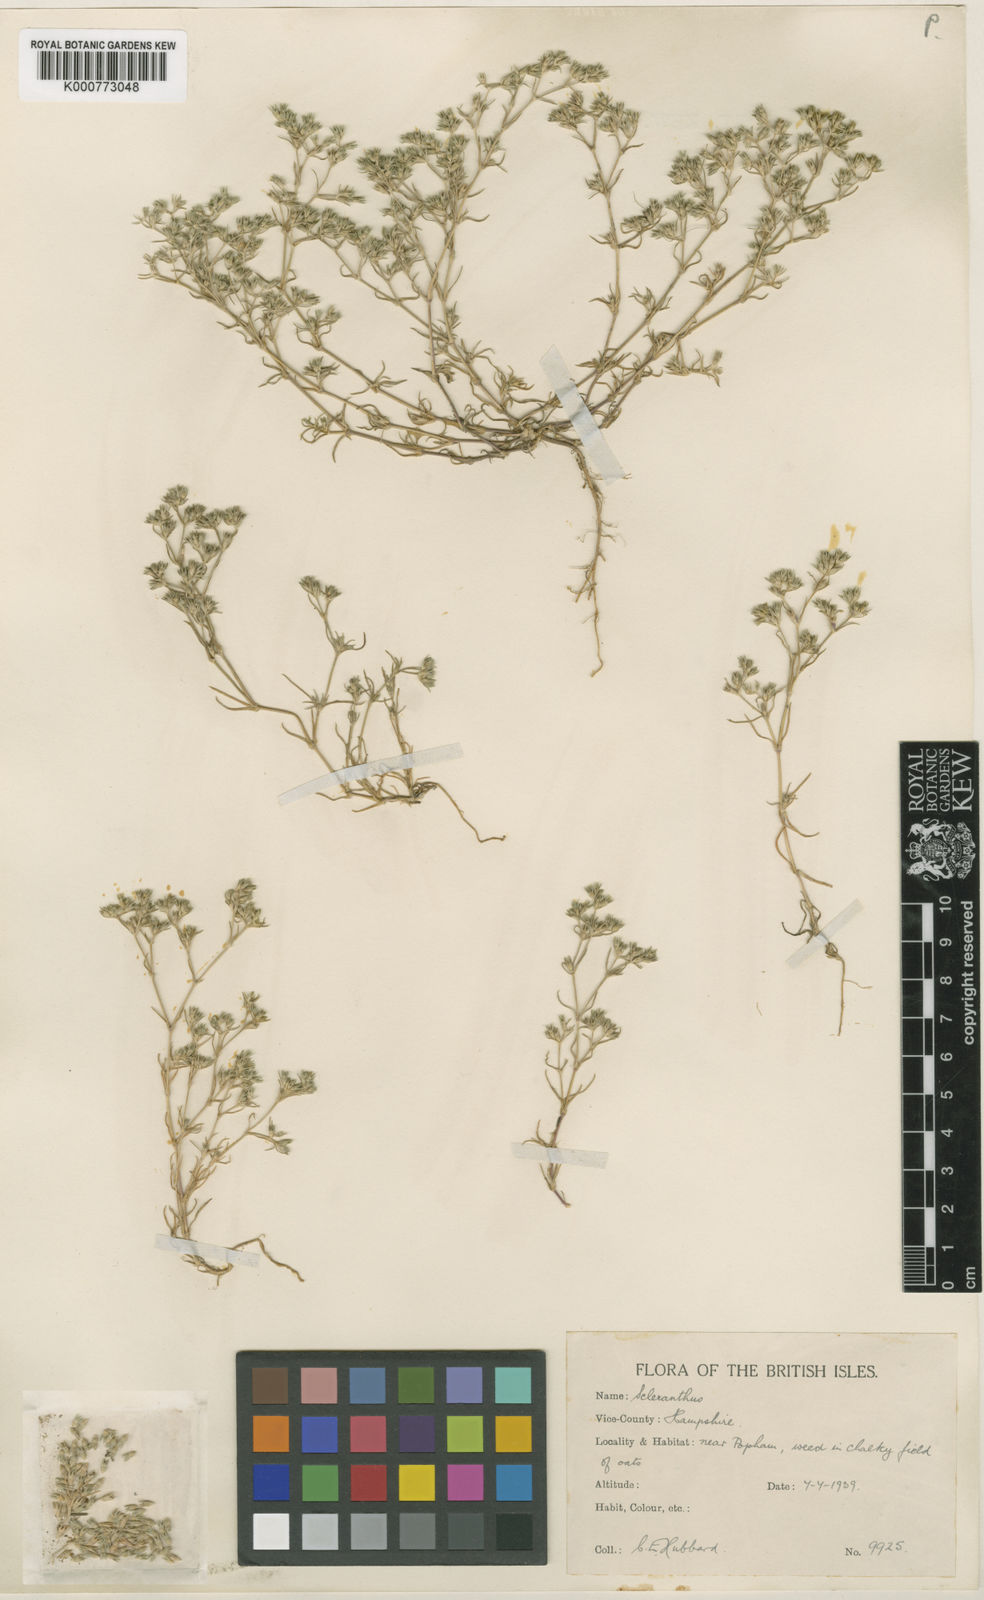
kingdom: Plantae
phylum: Tracheophyta
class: Magnoliopsida
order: Caryophyllales
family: Caryophyllaceae
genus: Scleranthus
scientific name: Scleranthus annuus
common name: Annual knawel
